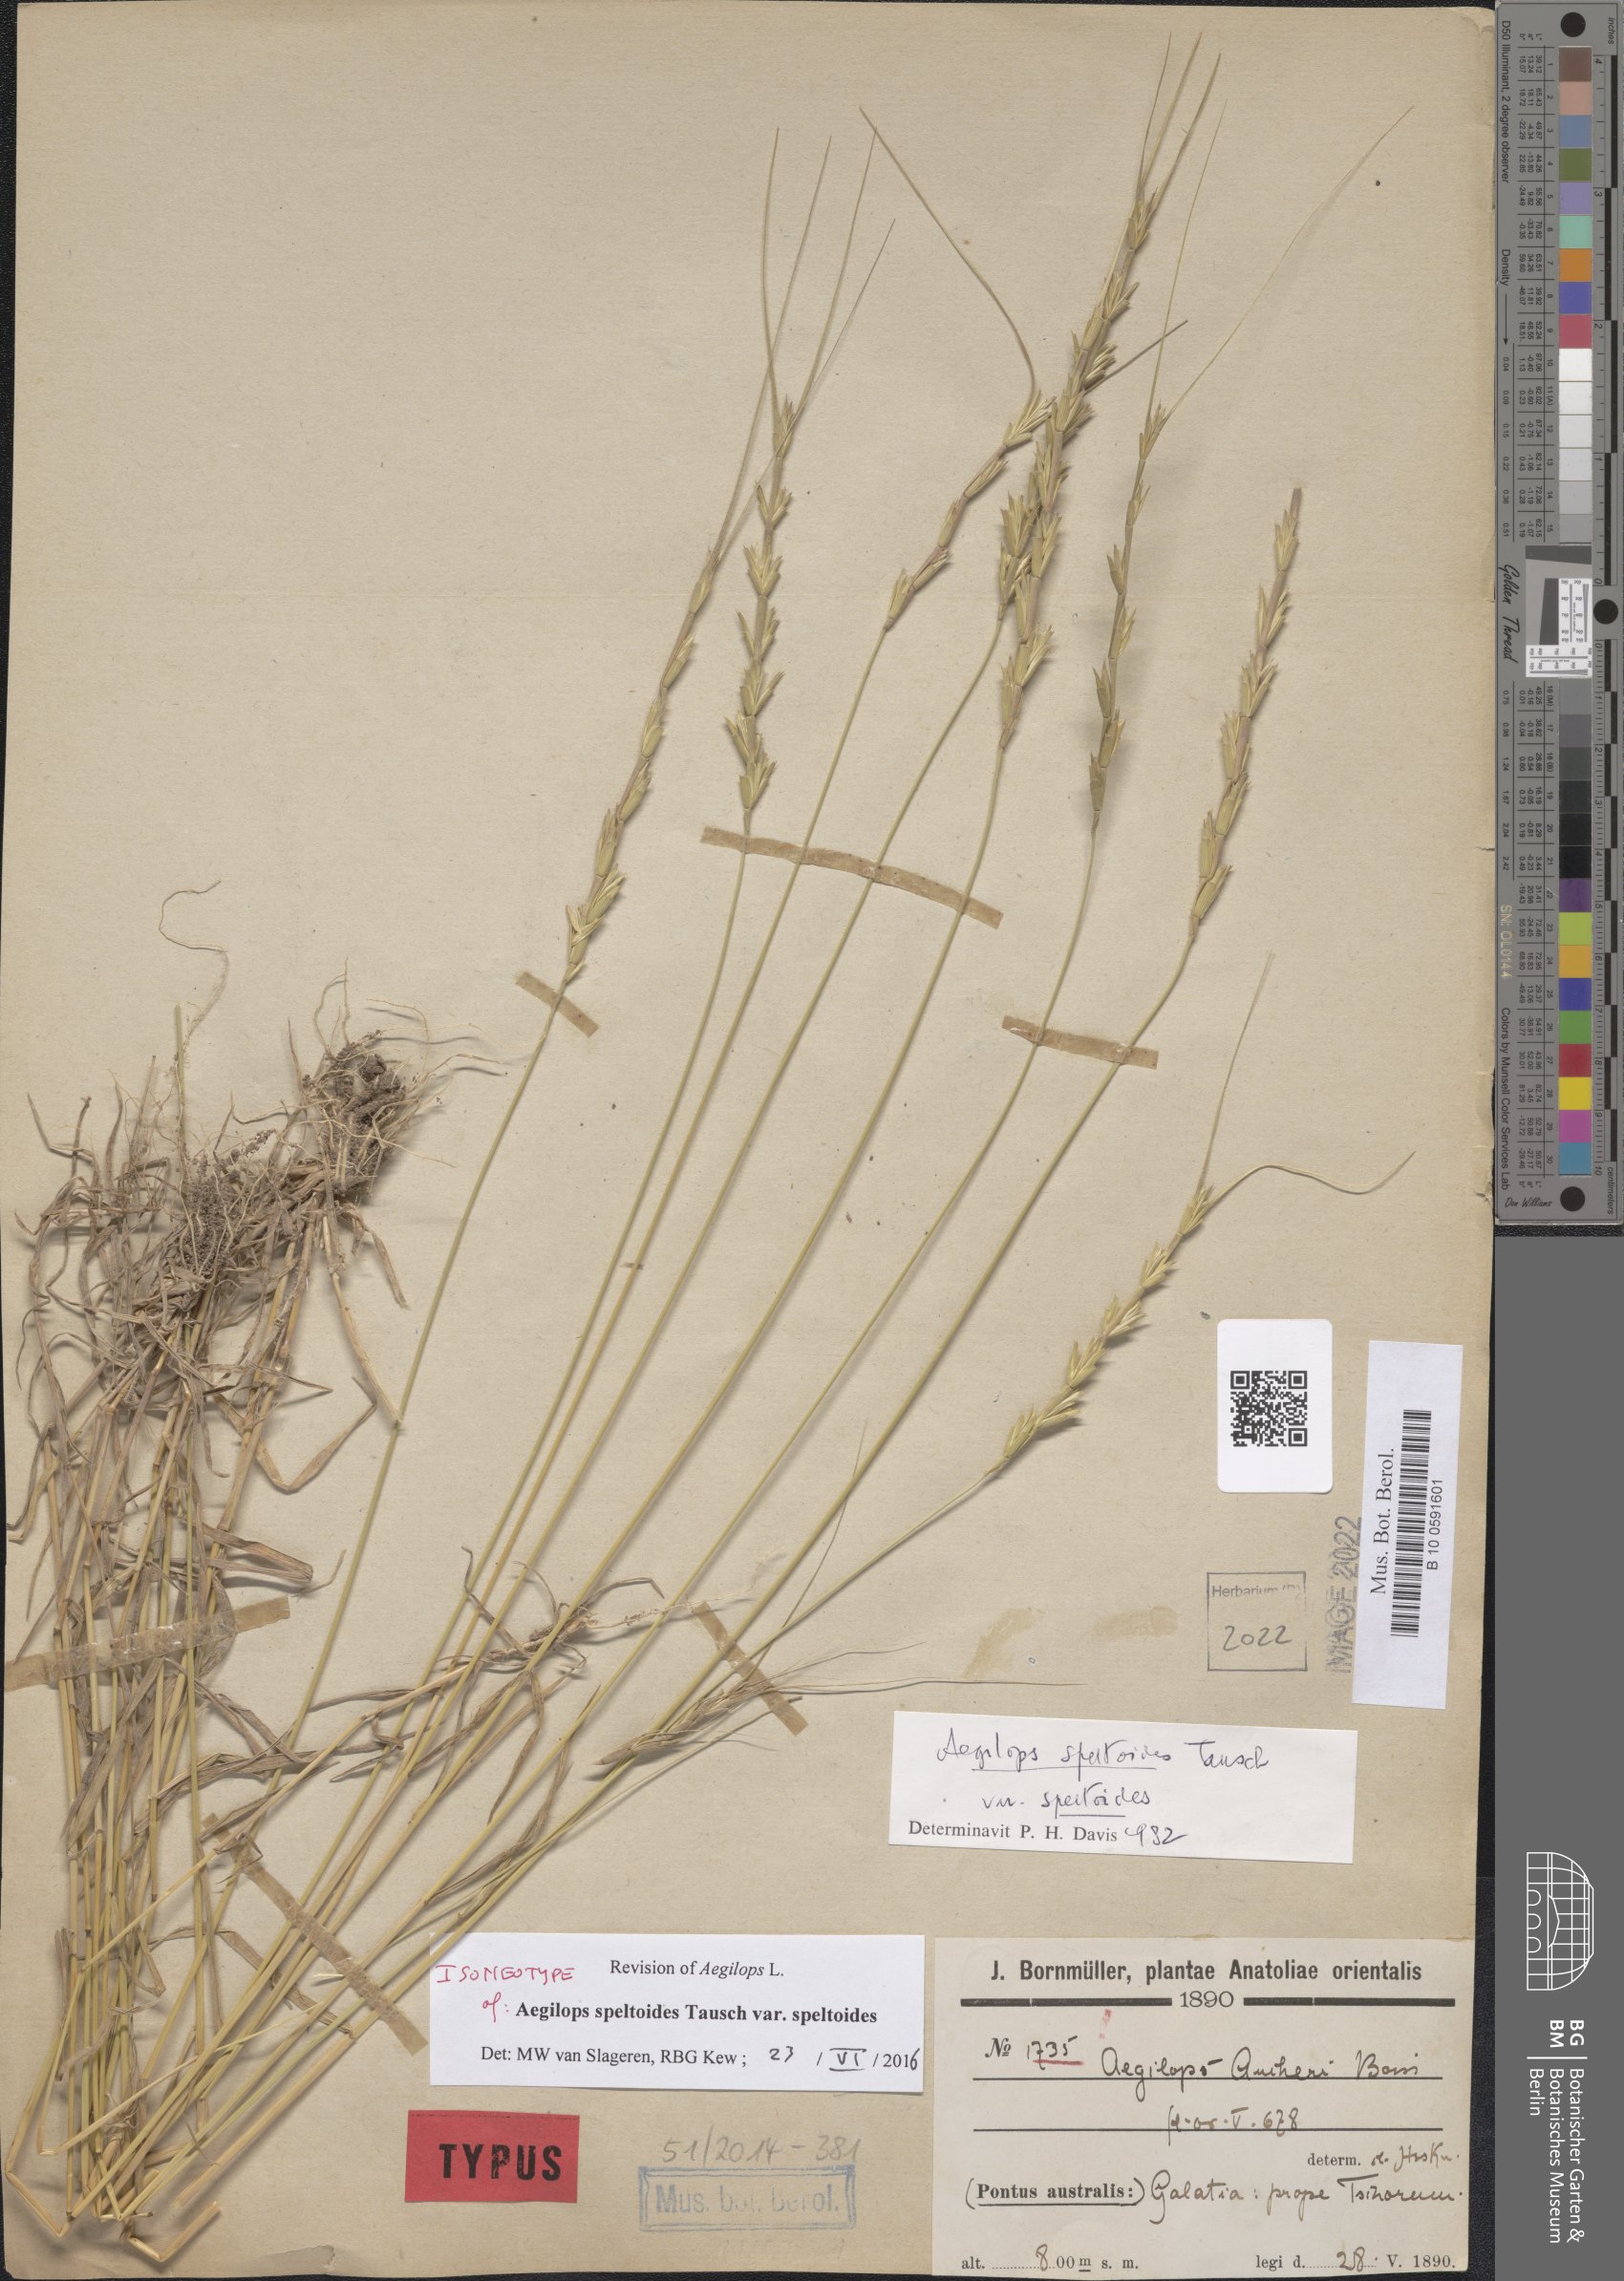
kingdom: Plantae
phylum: Tracheophyta
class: Liliopsida
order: Poales
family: Poaceae
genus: Aegilops
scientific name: Aegilops speltoides
